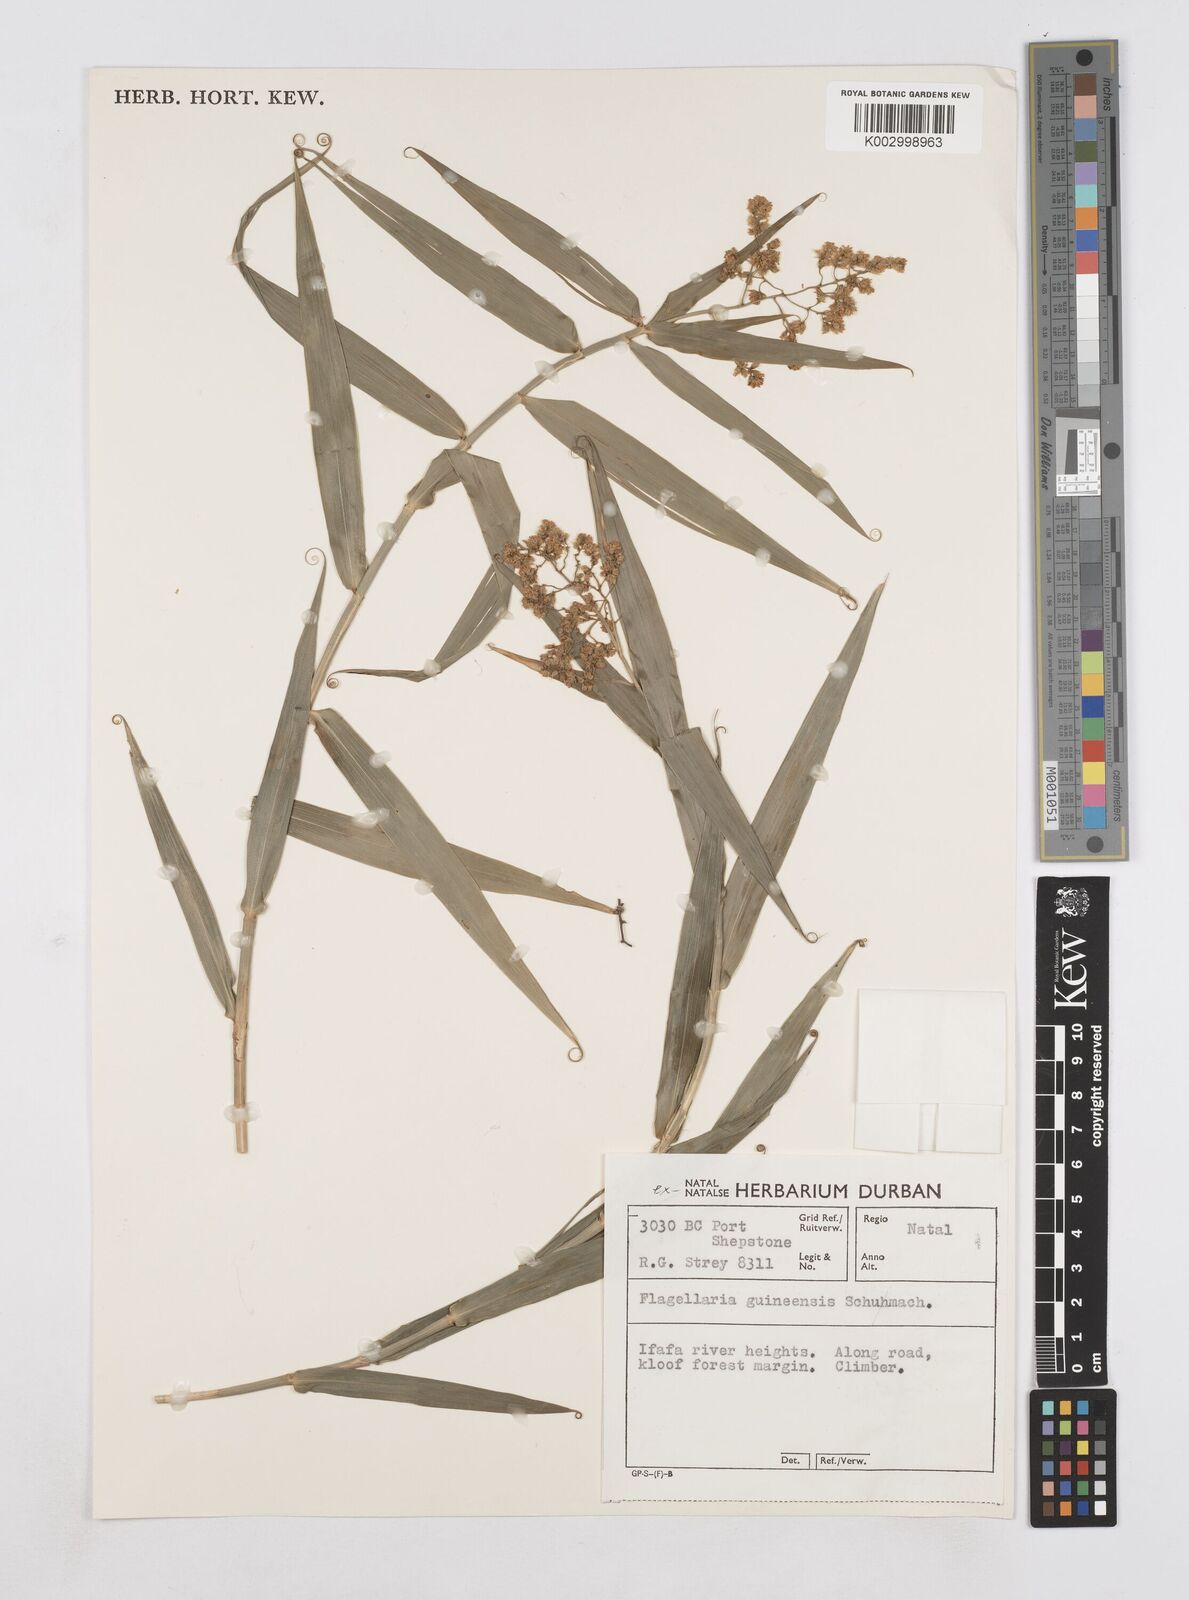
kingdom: Plantae
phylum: Tracheophyta
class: Liliopsida
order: Poales
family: Flagellariaceae
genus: Flagellaria
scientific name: Flagellaria guineensis
